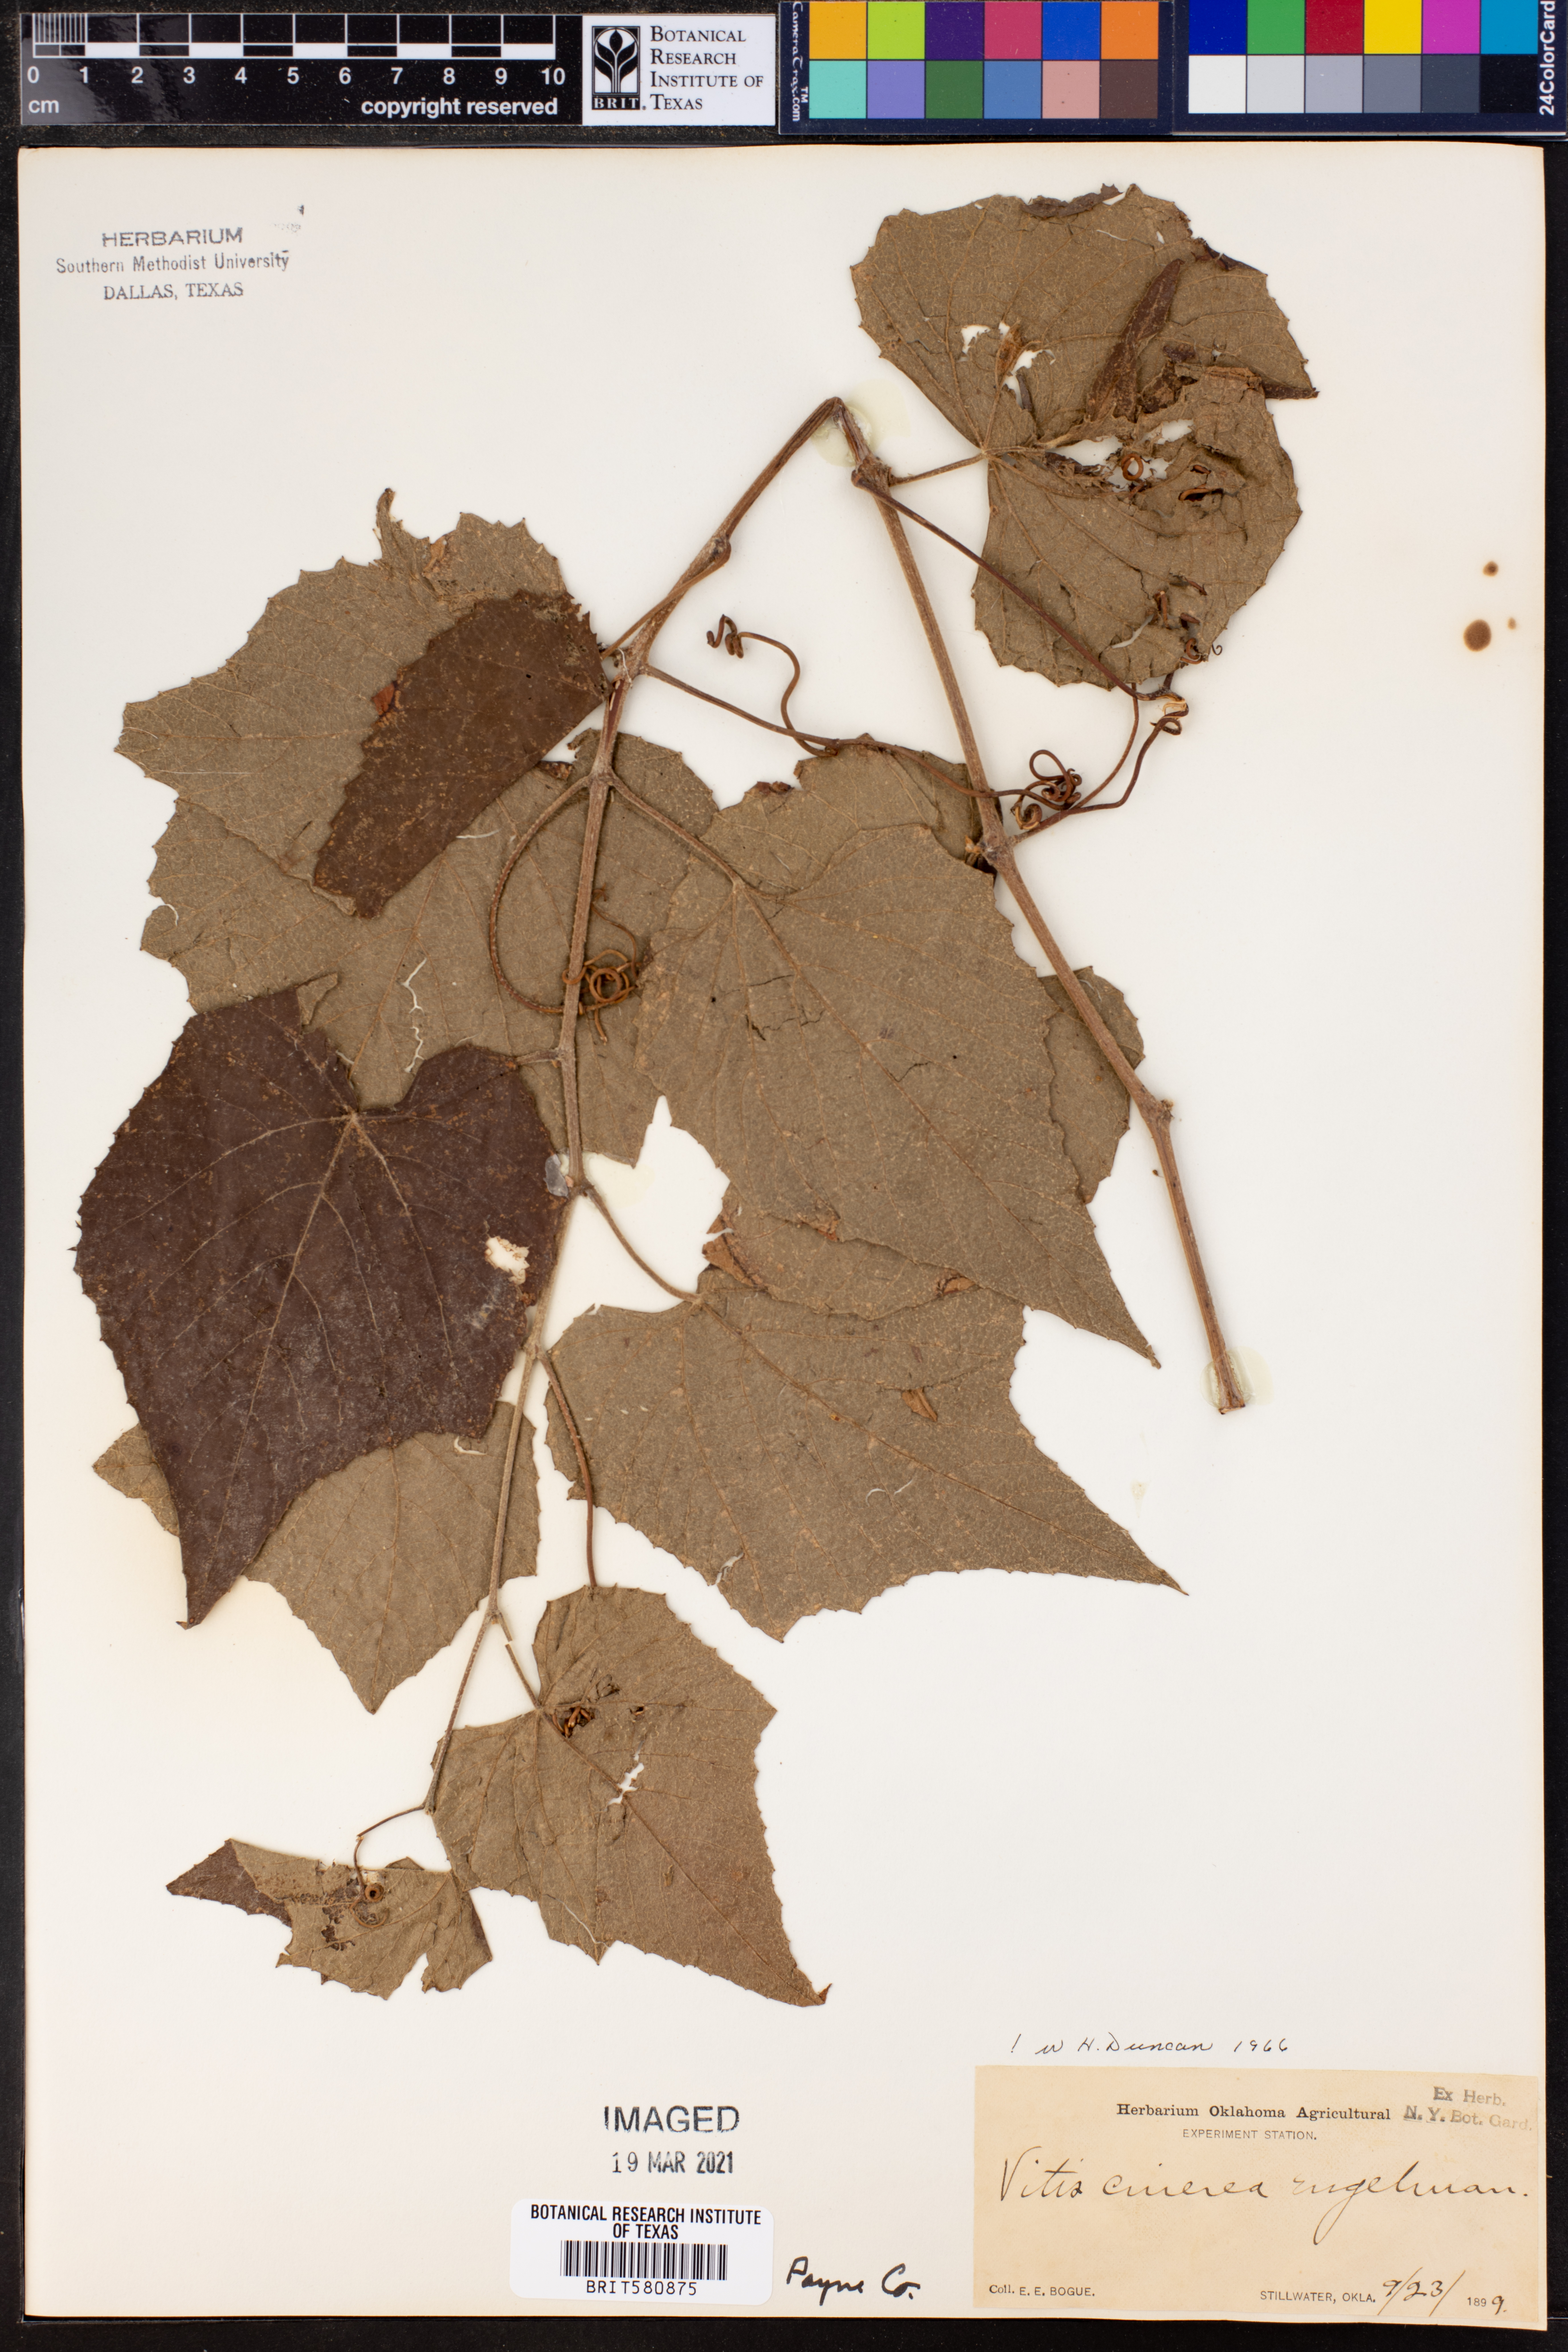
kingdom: Plantae
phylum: Tracheophyta
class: Magnoliopsida
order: Vitales
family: Vitaceae
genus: Vitis
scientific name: Vitis cinerea
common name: Ashy grape
